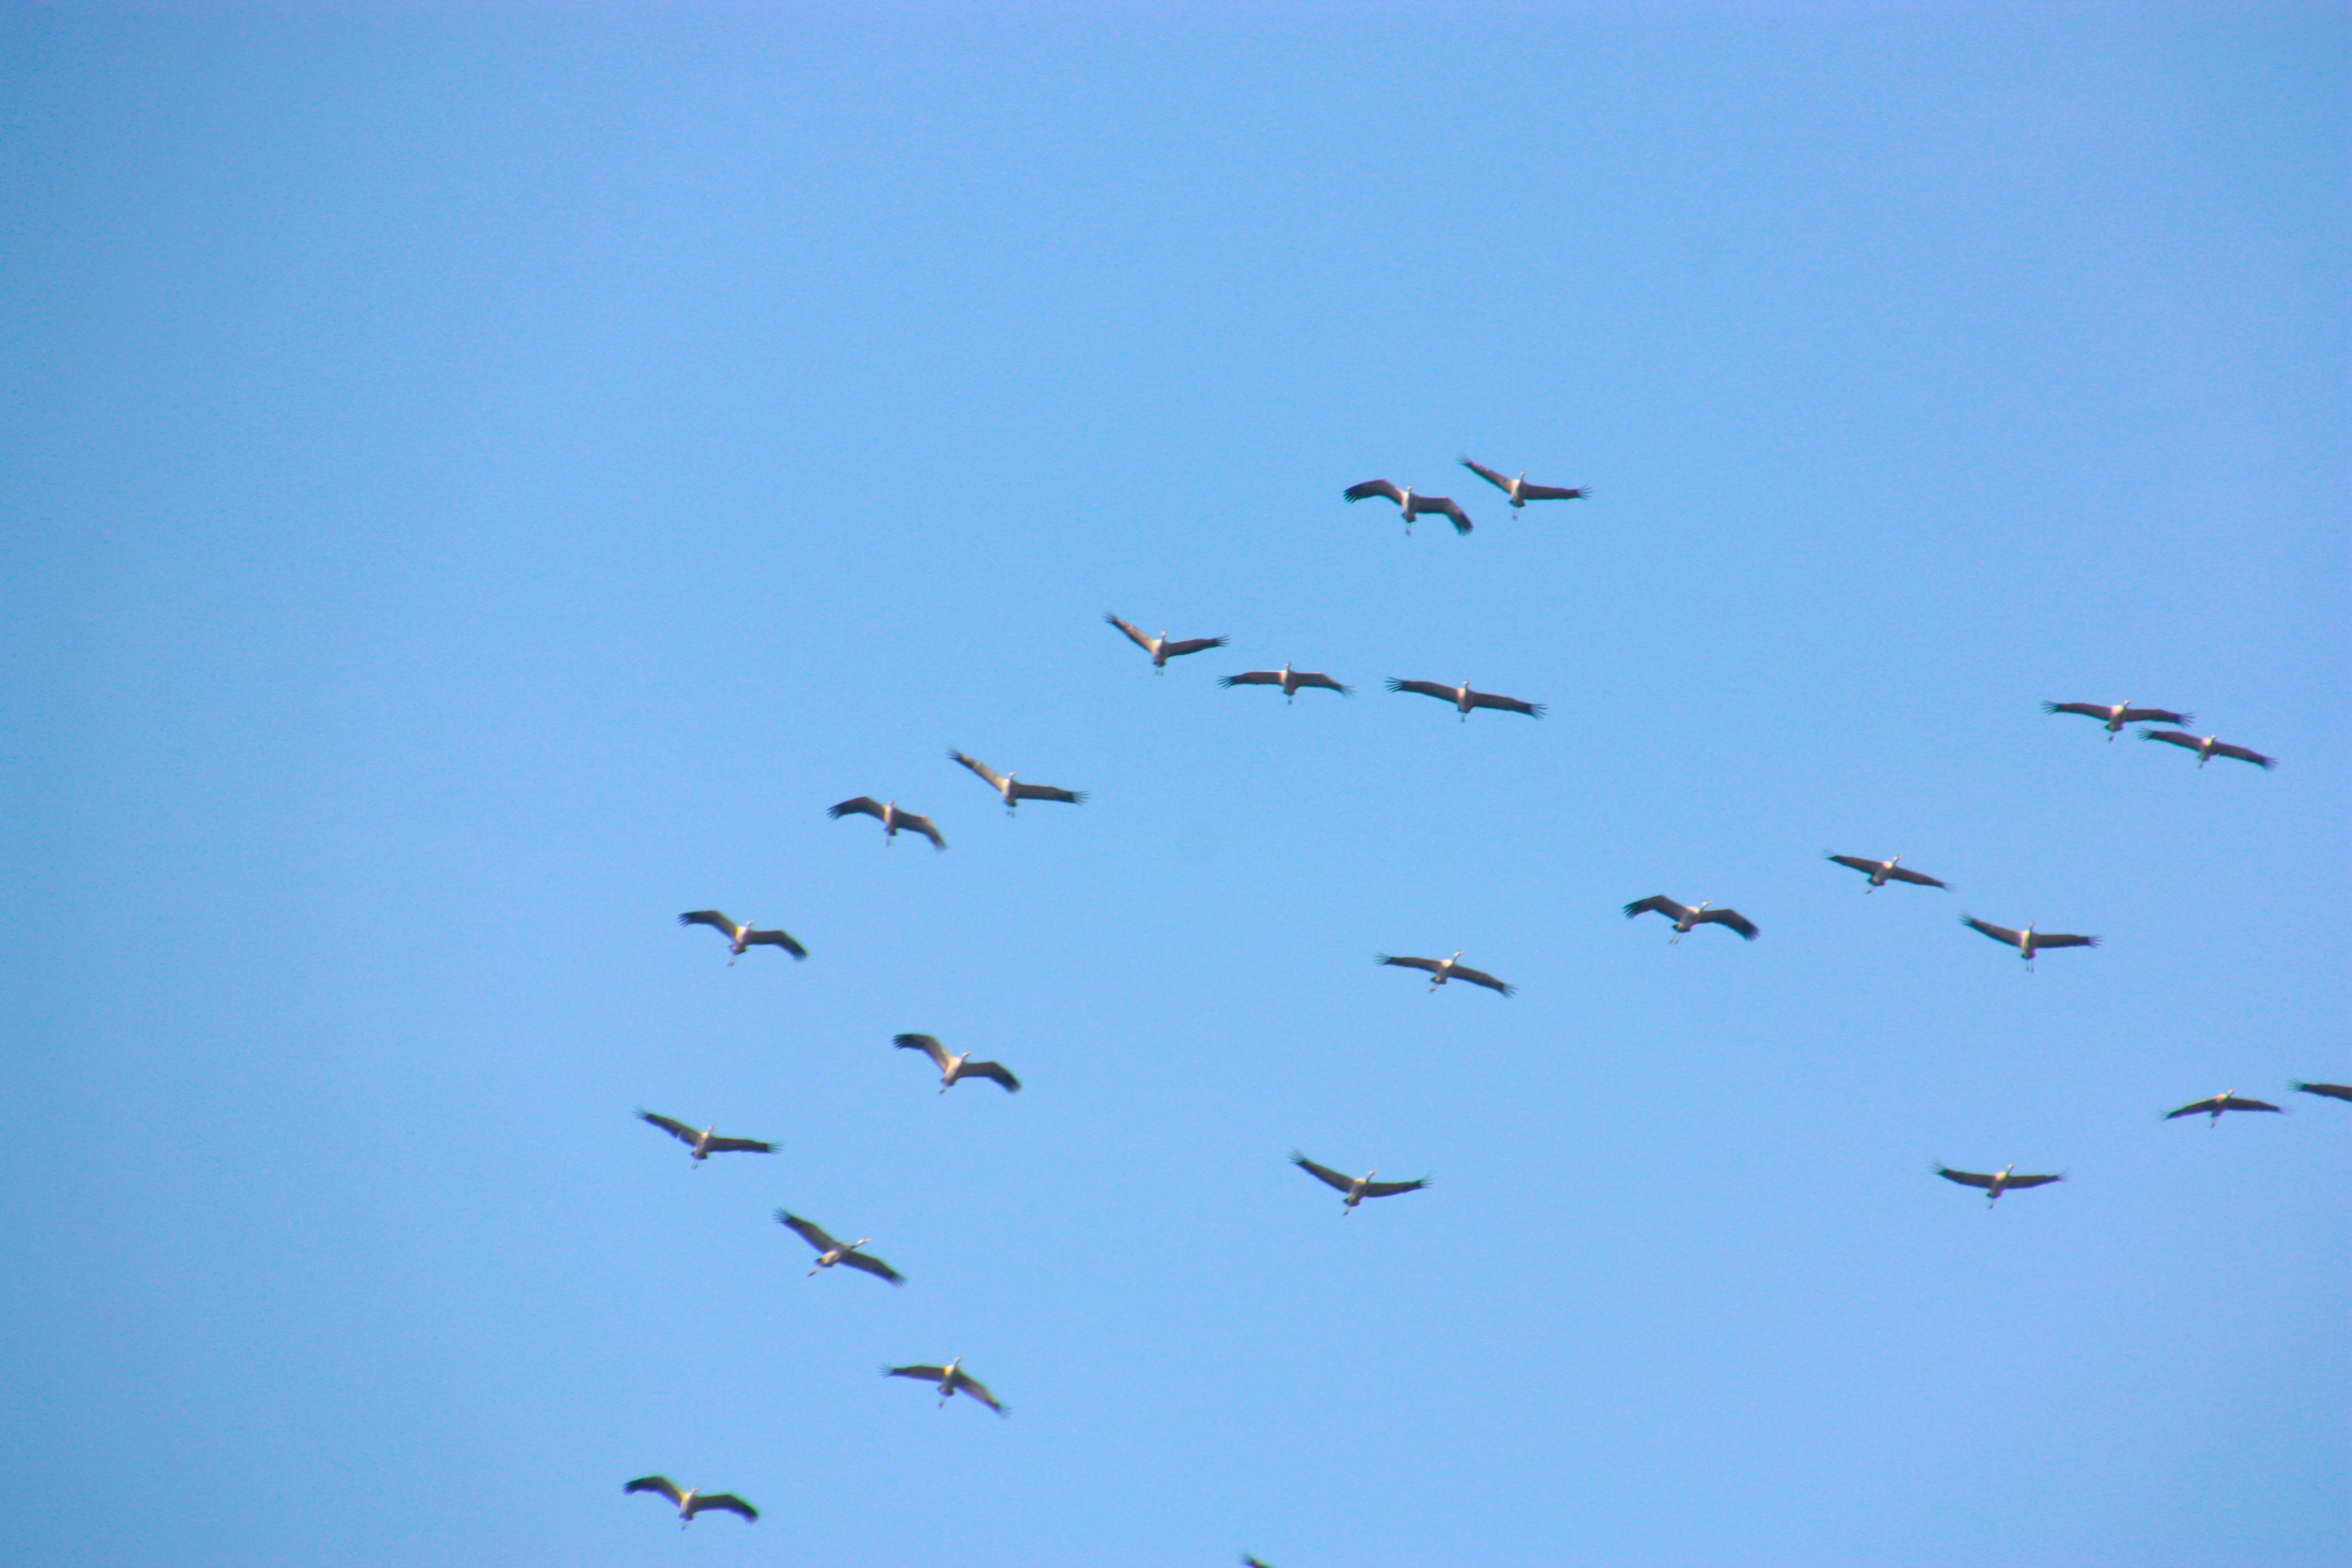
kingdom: Animalia
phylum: Chordata
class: Aves
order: Gruiformes
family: Gruidae
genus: Grus
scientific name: Grus grus
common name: Trane
